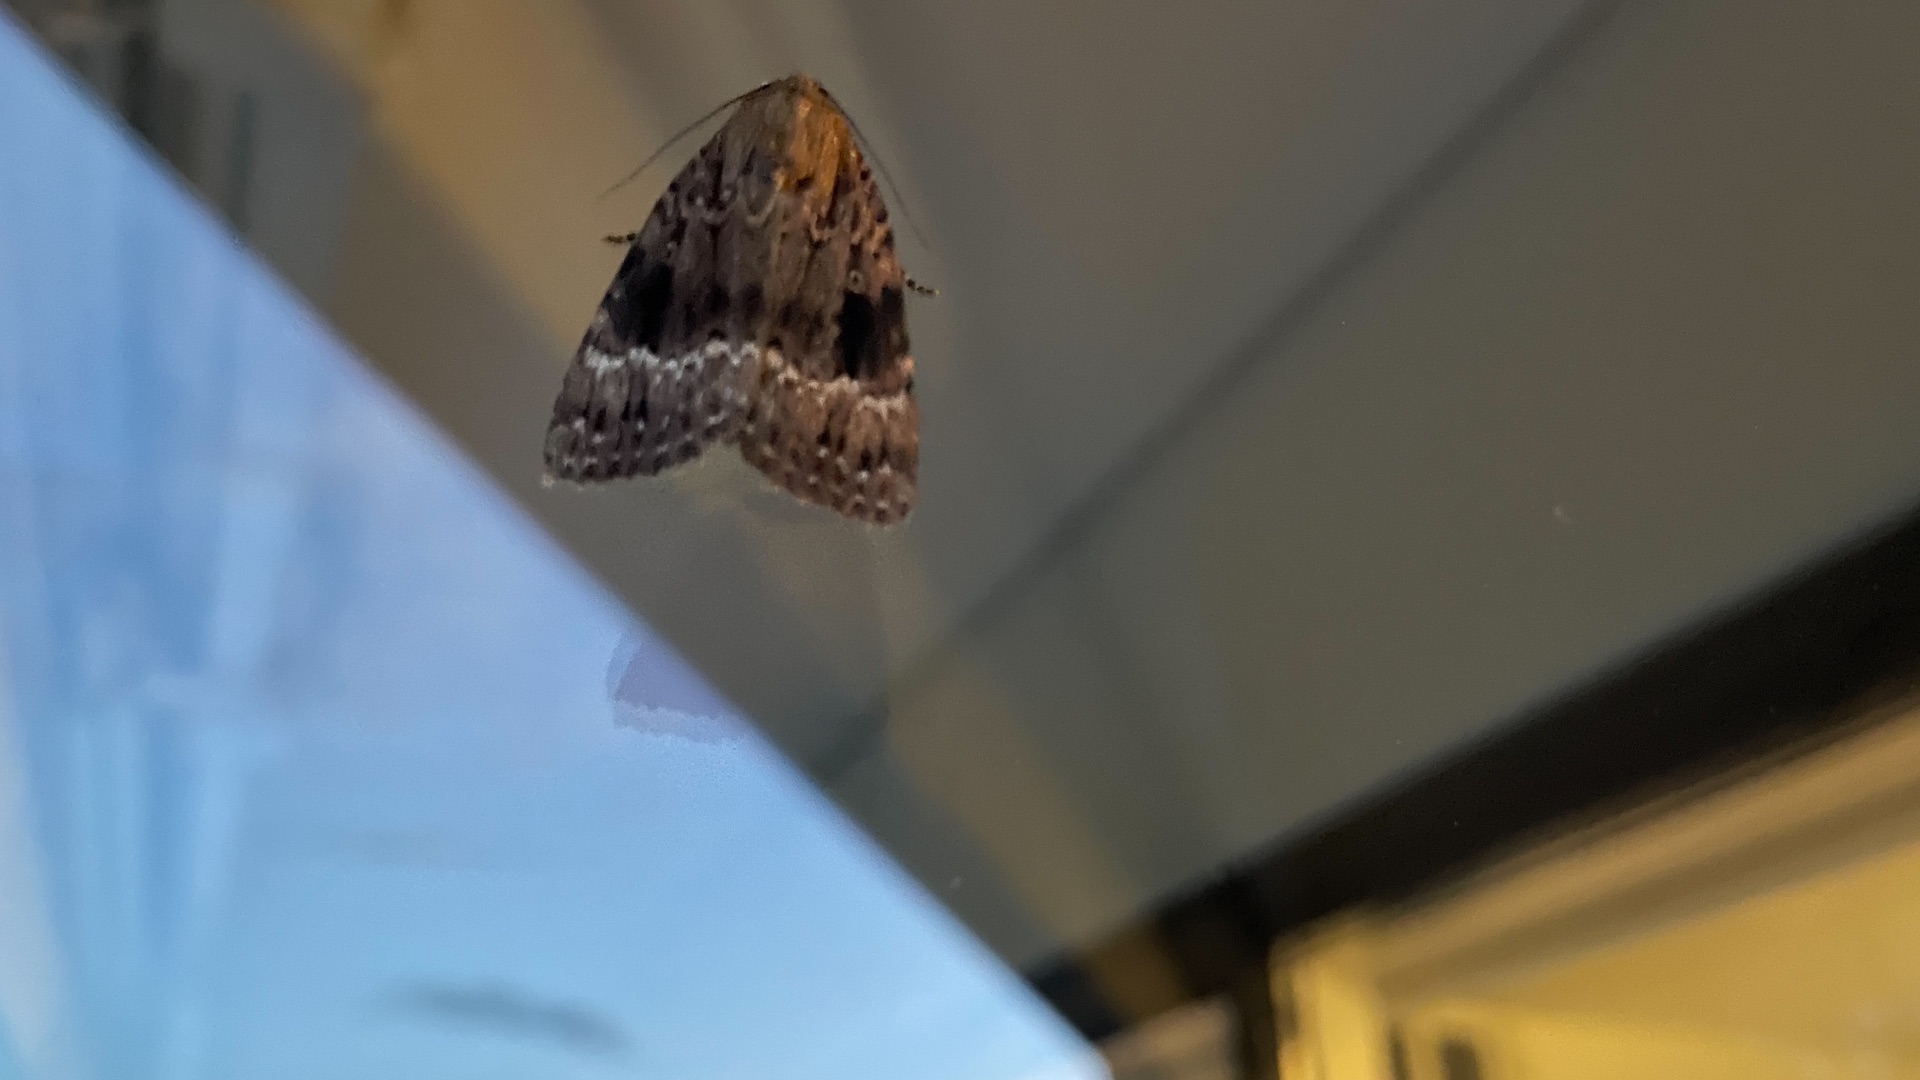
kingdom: Animalia
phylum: Arthropoda
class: Insecta
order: Lepidoptera
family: Noctuidae
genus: Amphipyra
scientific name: Amphipyra pyramidea
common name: Pyramideugle
